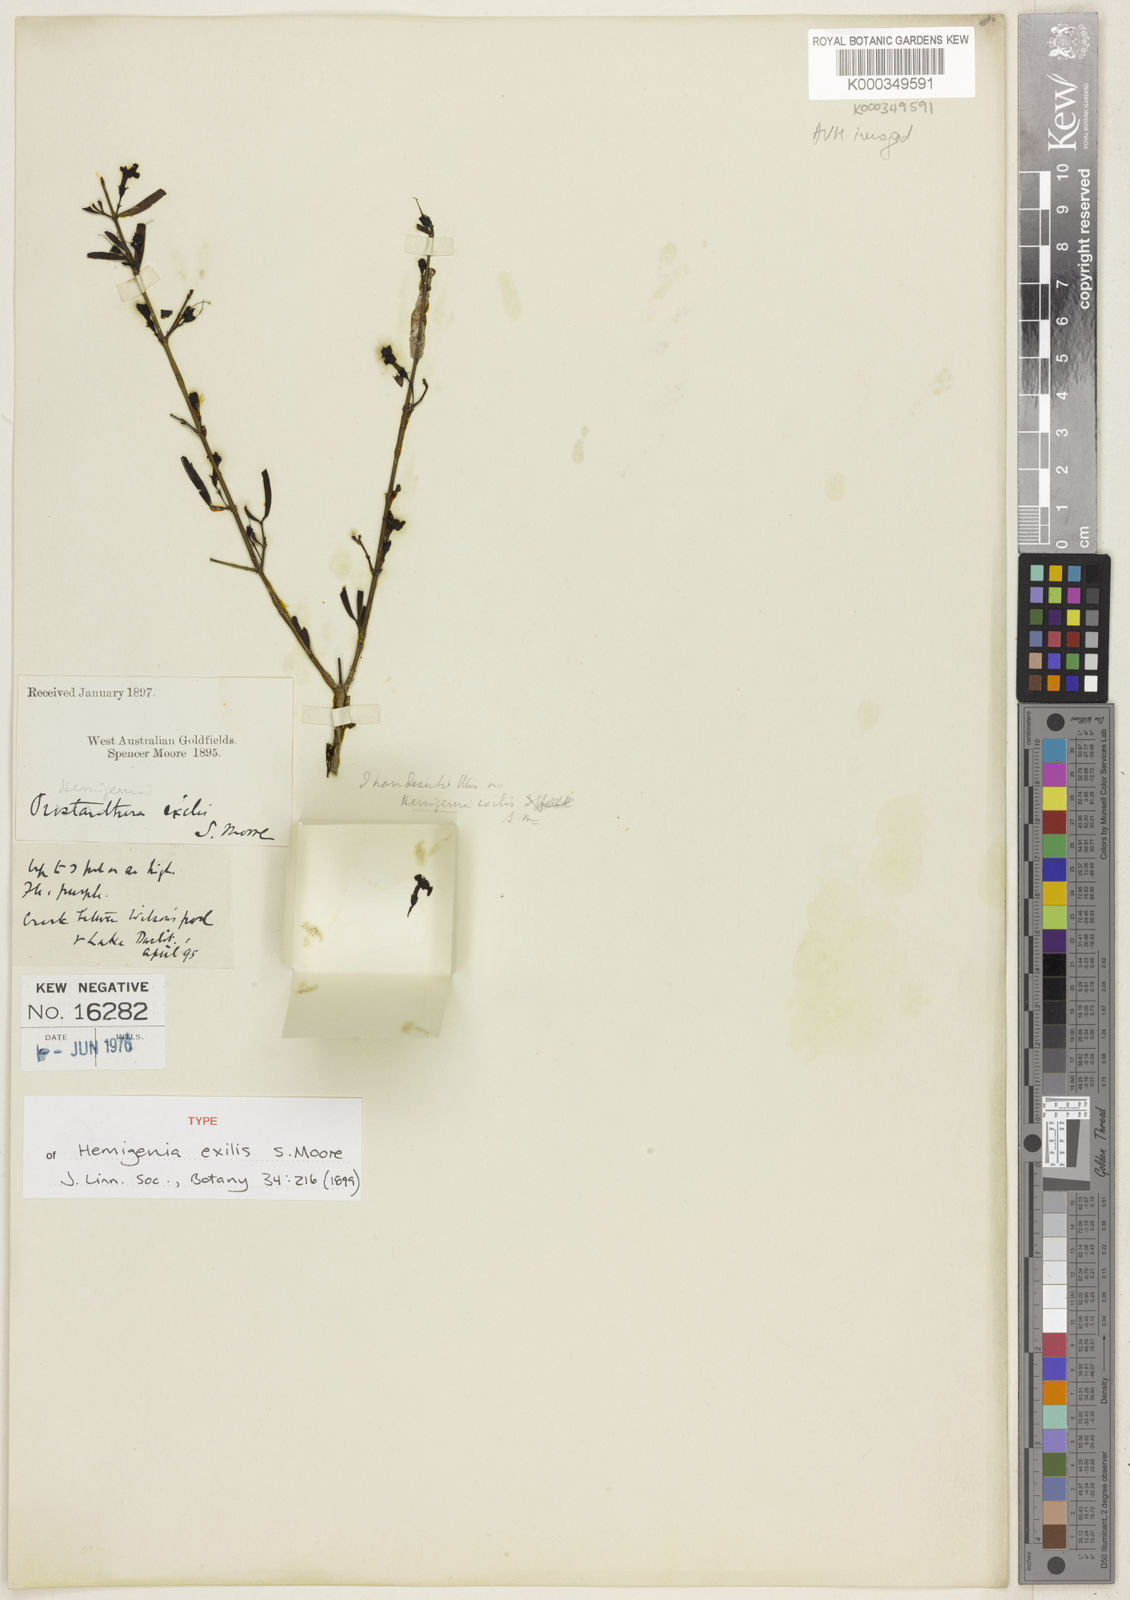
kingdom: Plantae
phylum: Tracheophyta
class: Magnoliopsida
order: Lamiales
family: Lamiaceae
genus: Hemigenia
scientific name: Hemigenia exilis
